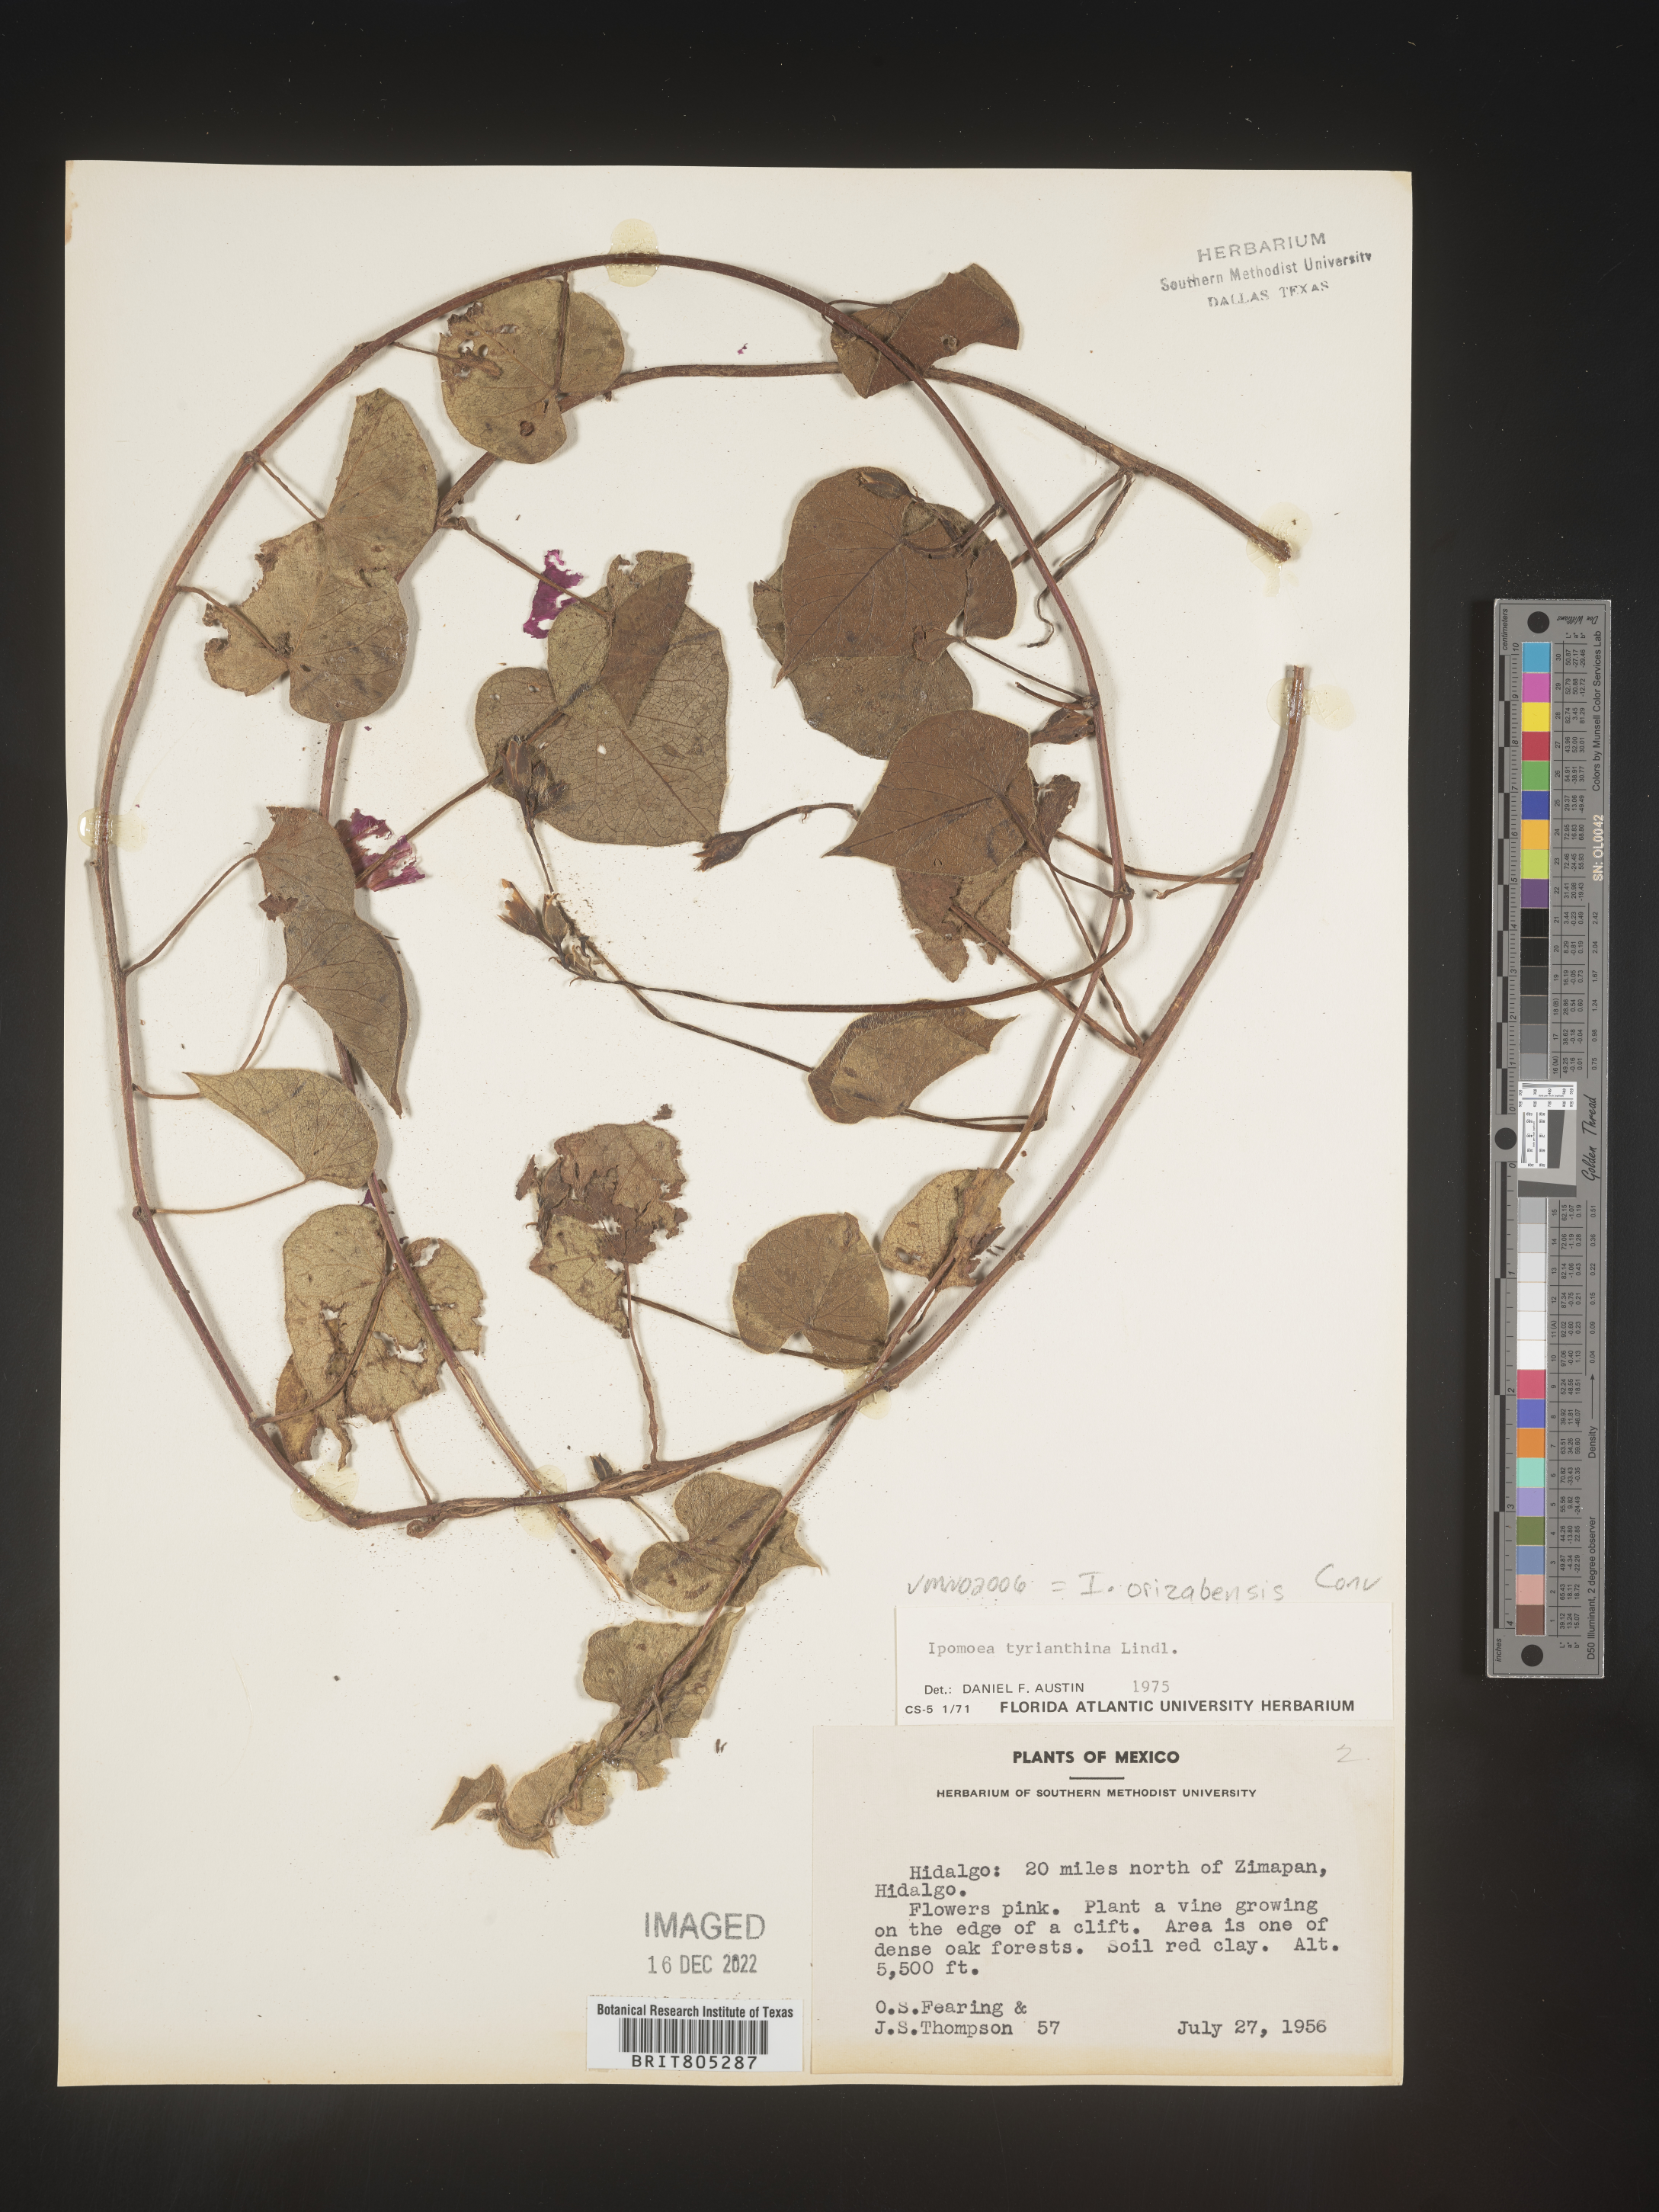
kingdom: Plantae
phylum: Tracheophyta
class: Magnoliopsida
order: Solanales
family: Convolvulaceae
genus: Ipomoea
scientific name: Ipomoea
